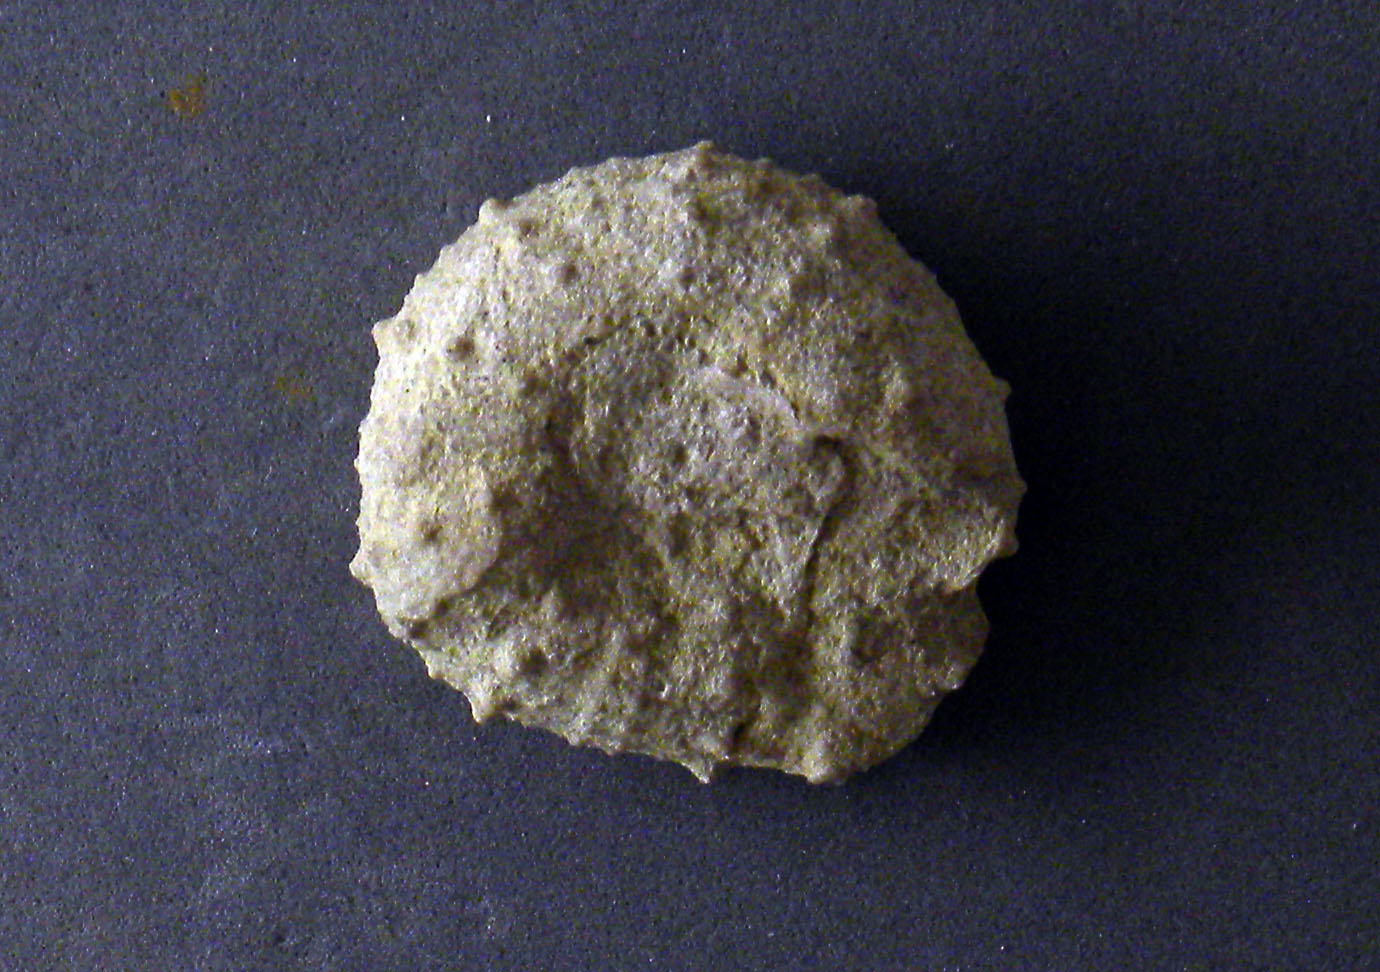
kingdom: Animalia
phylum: Echinodermata
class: Echinoidea
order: Cidaroida
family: Cidaridae
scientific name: Cidaridae
